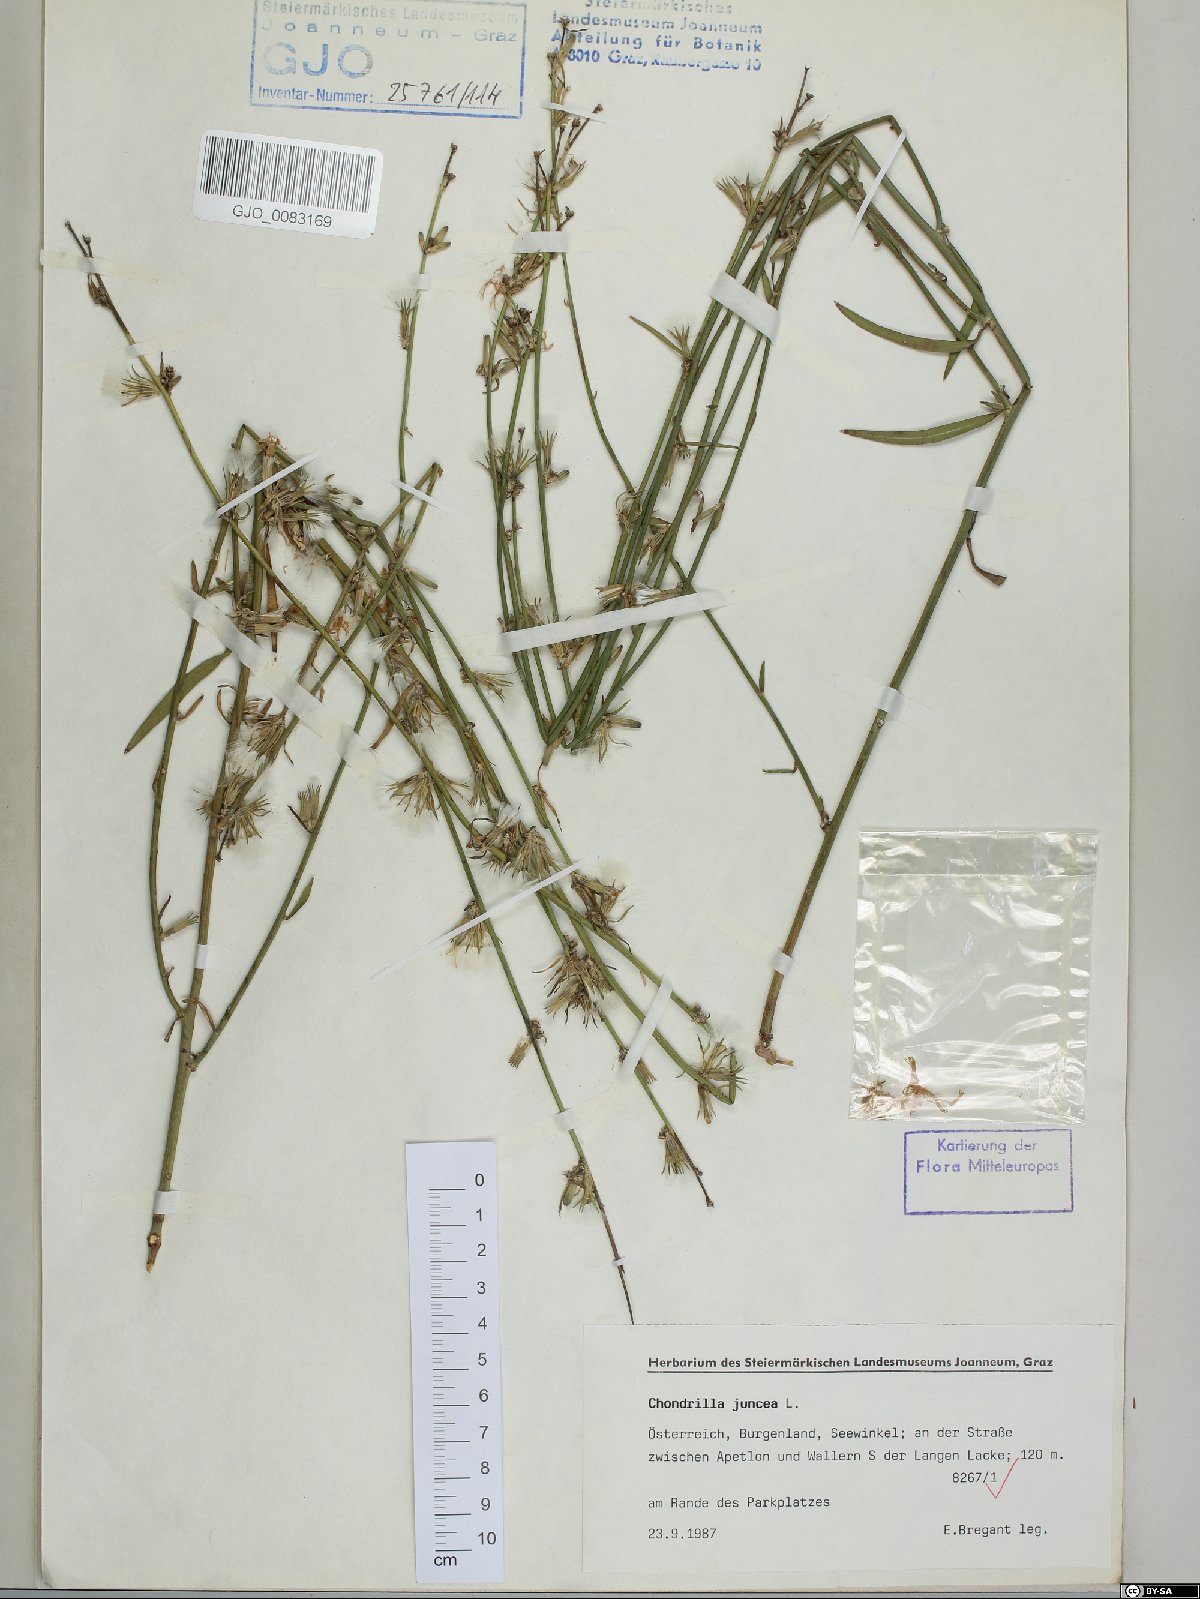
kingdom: Plantae
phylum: Tracheophyta
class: Magnoliopsida
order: Asterales
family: Asteraceae
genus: Chondrilla
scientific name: Chondrilla juncea
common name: Skeleton weed
